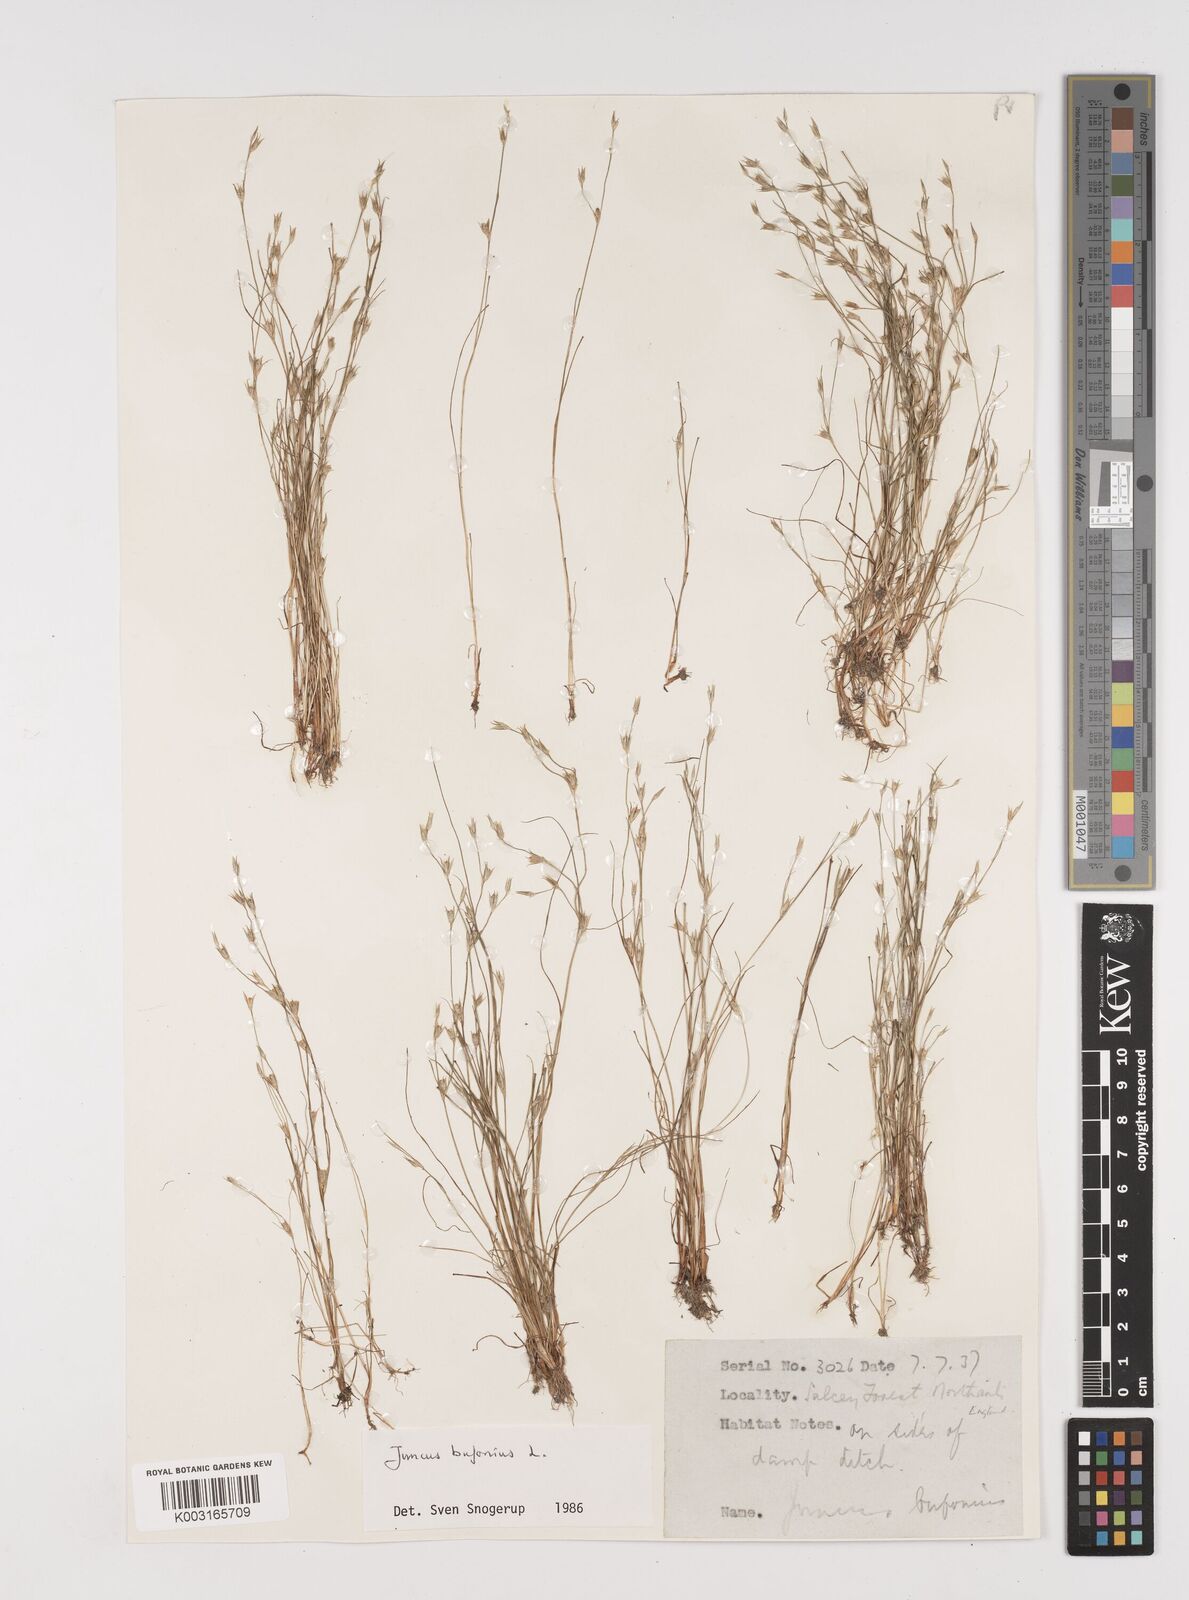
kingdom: Plantae
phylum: Tracheophyta
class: Liliopsida
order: Poales
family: Juncaceae
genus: Juncus
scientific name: Juncus bufonius
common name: Toad rush
